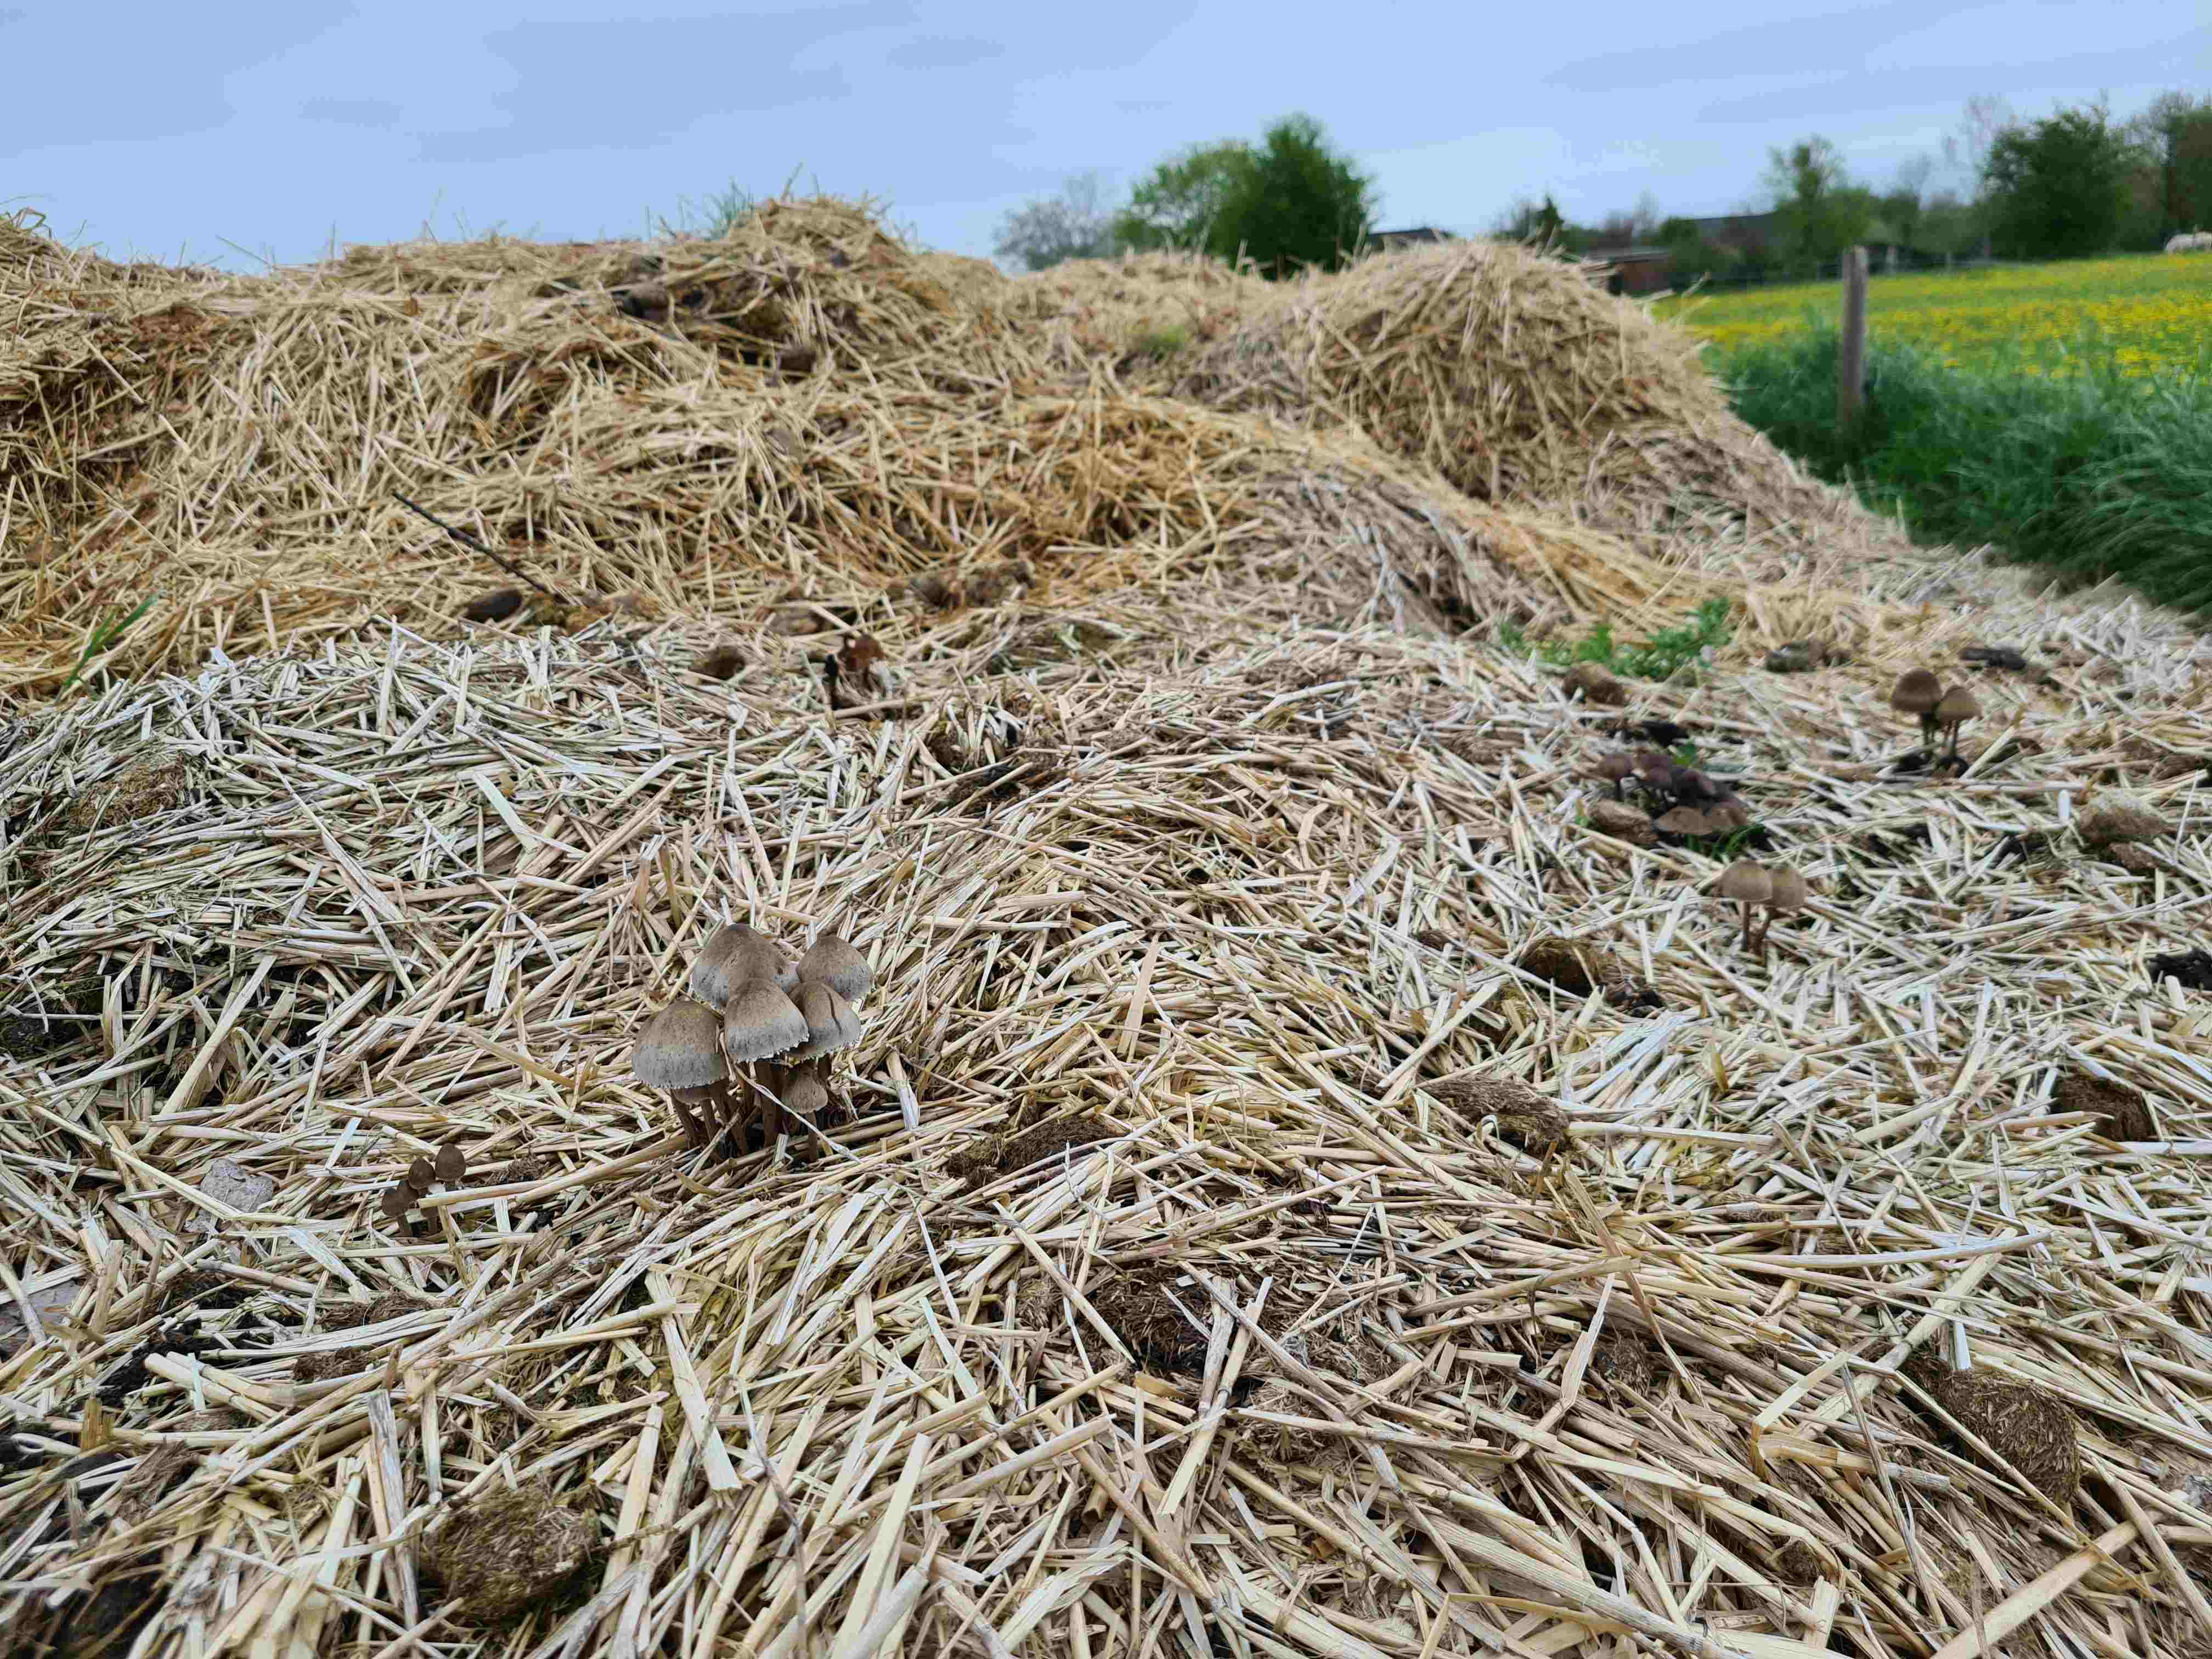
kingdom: Fungi
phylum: Basidiomycota
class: Agaricomycetes
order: Agaricales
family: Bolbitiaceae
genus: Panaeolus
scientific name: Panaeolus papilionaceus
